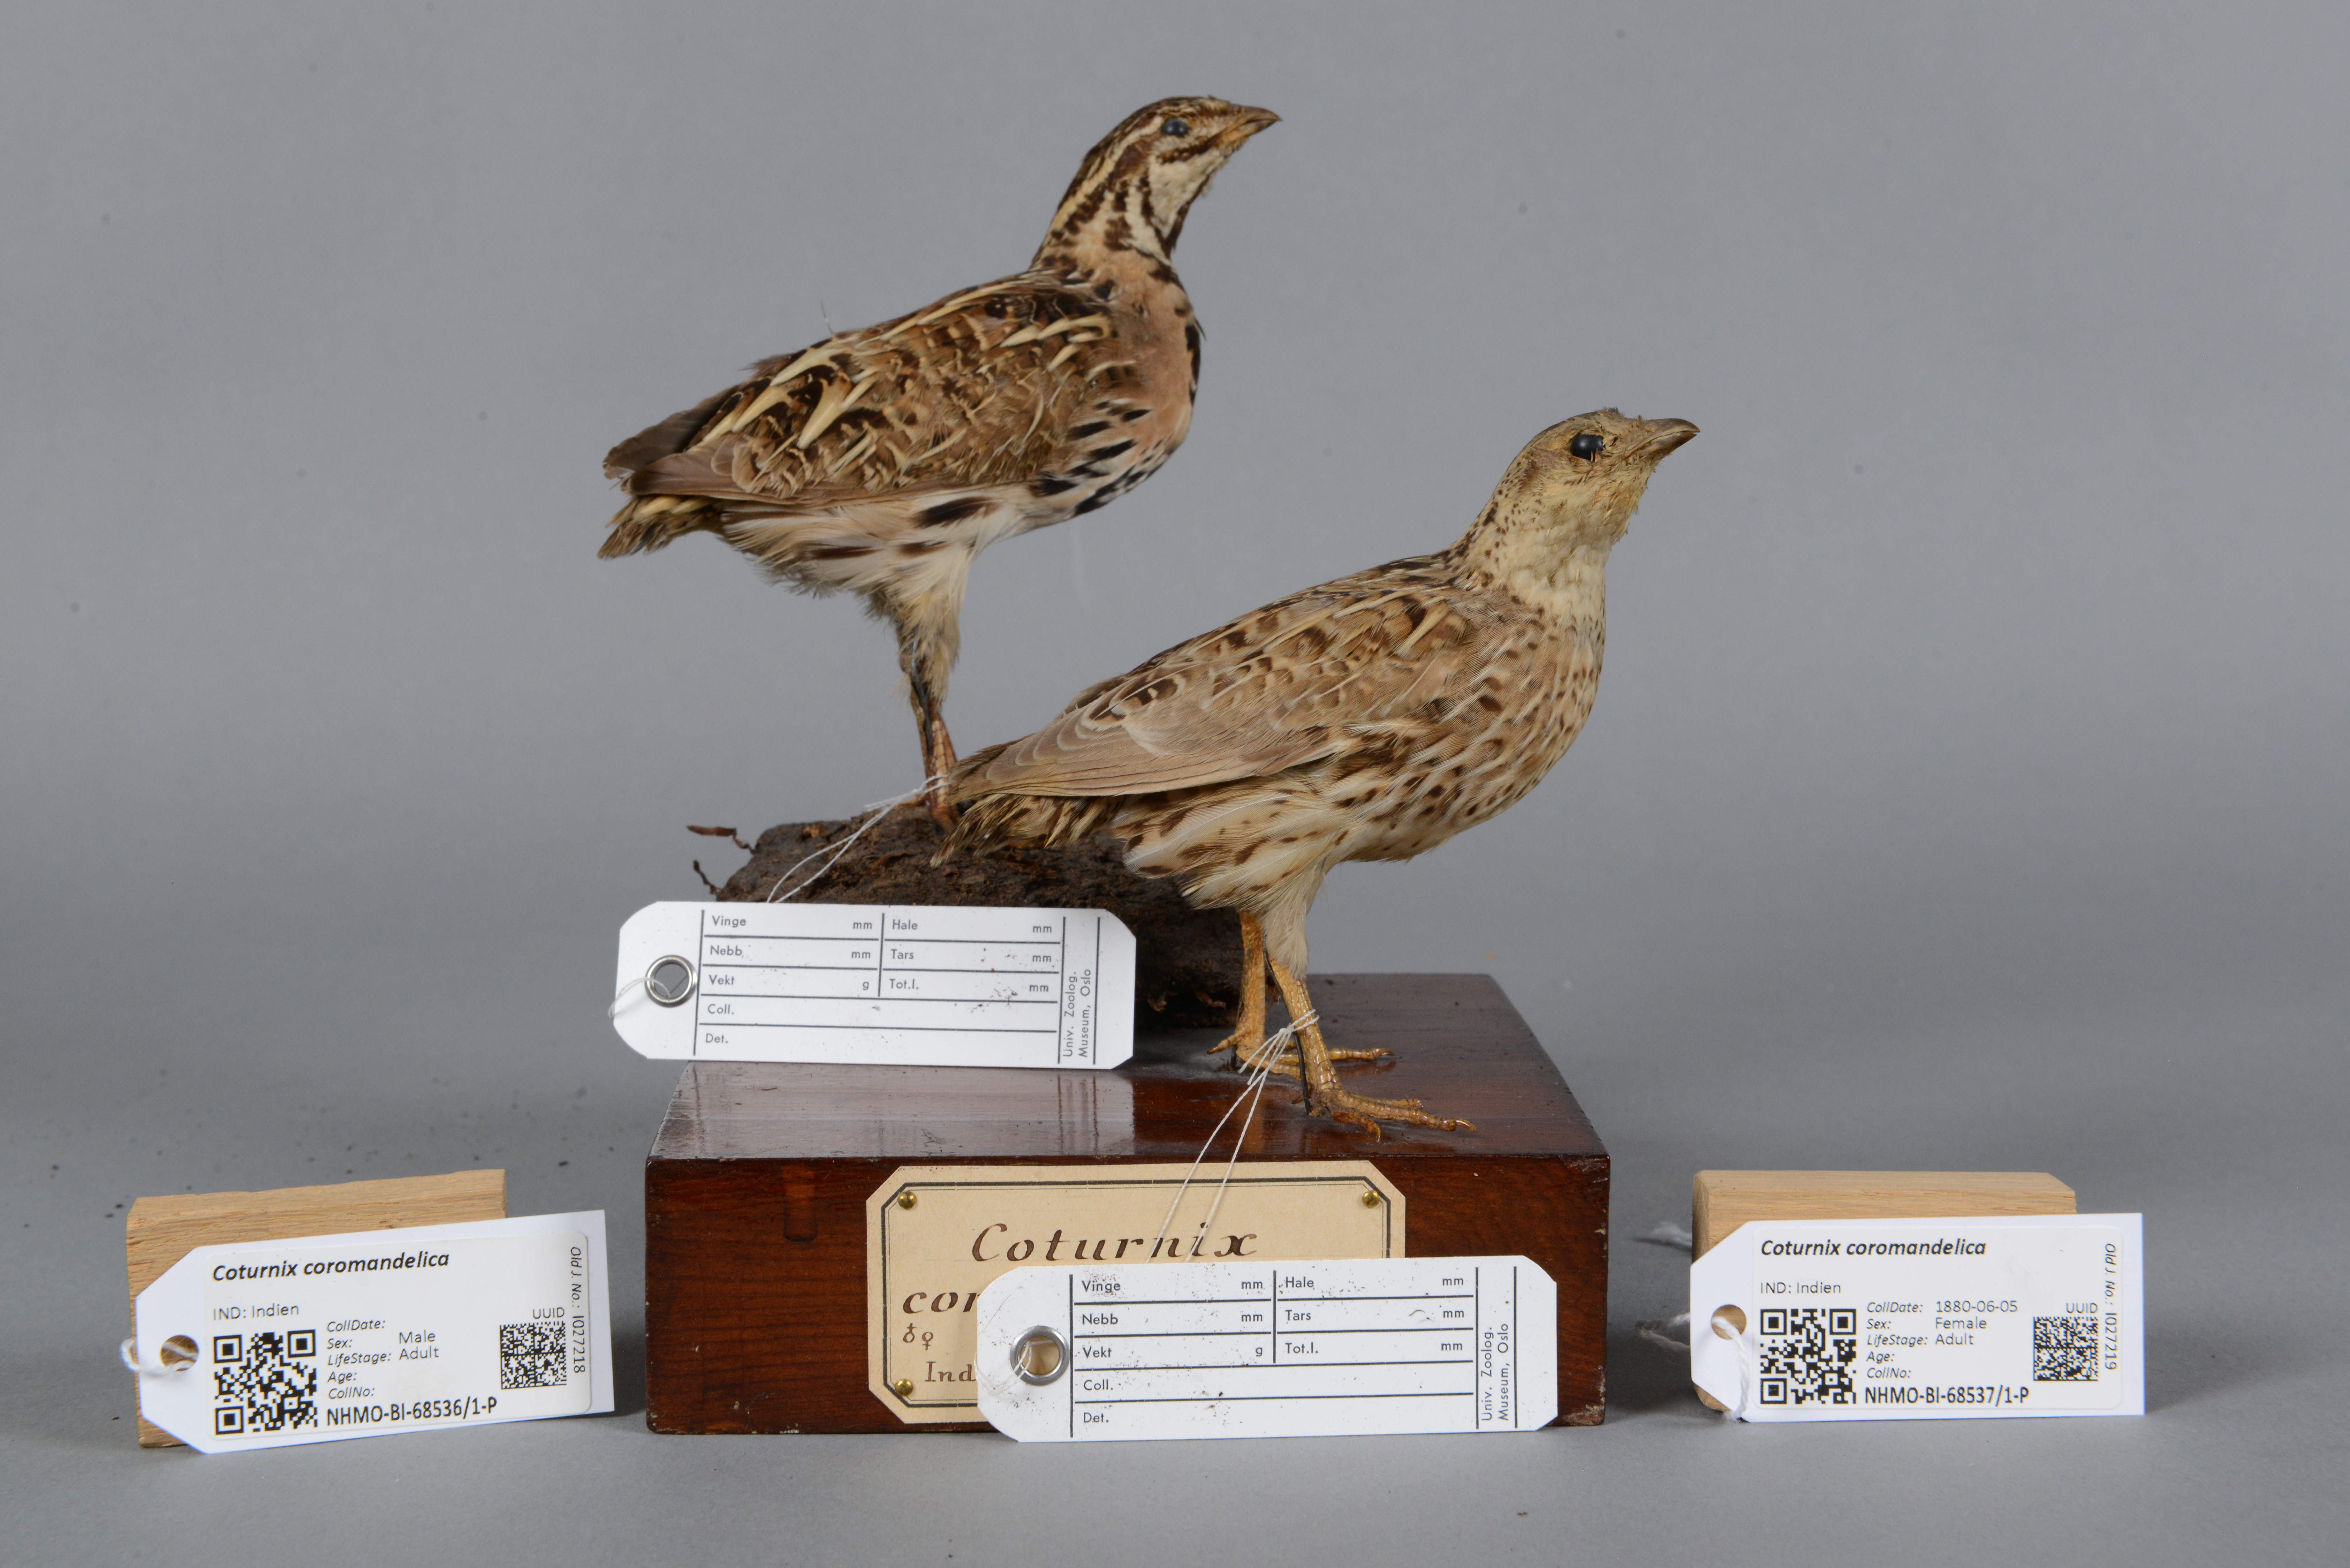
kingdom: Animalia
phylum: Chordata
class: Aves
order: Galliformes
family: Phasianidae
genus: Coturnix
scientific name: Coturnix coromandelica
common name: Rain quail
